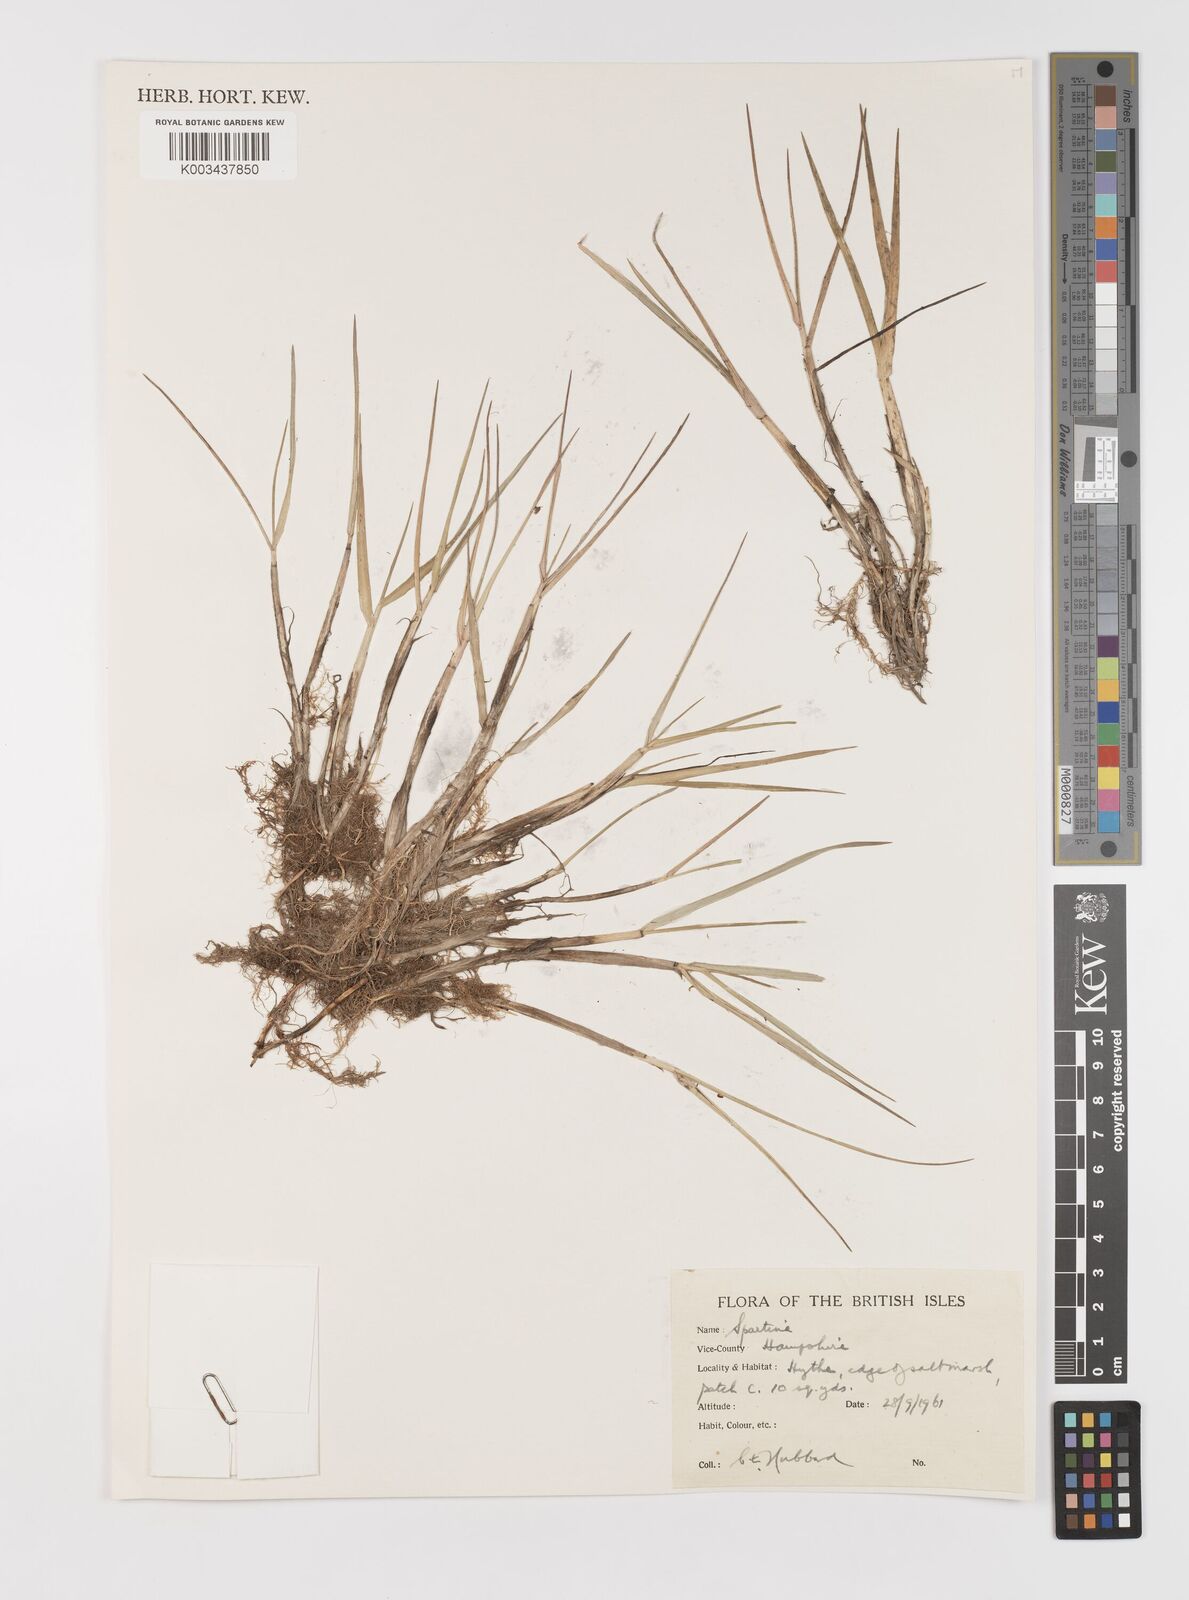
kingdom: Animalia
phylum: Mollusca
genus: Spartina
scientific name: Spartina
